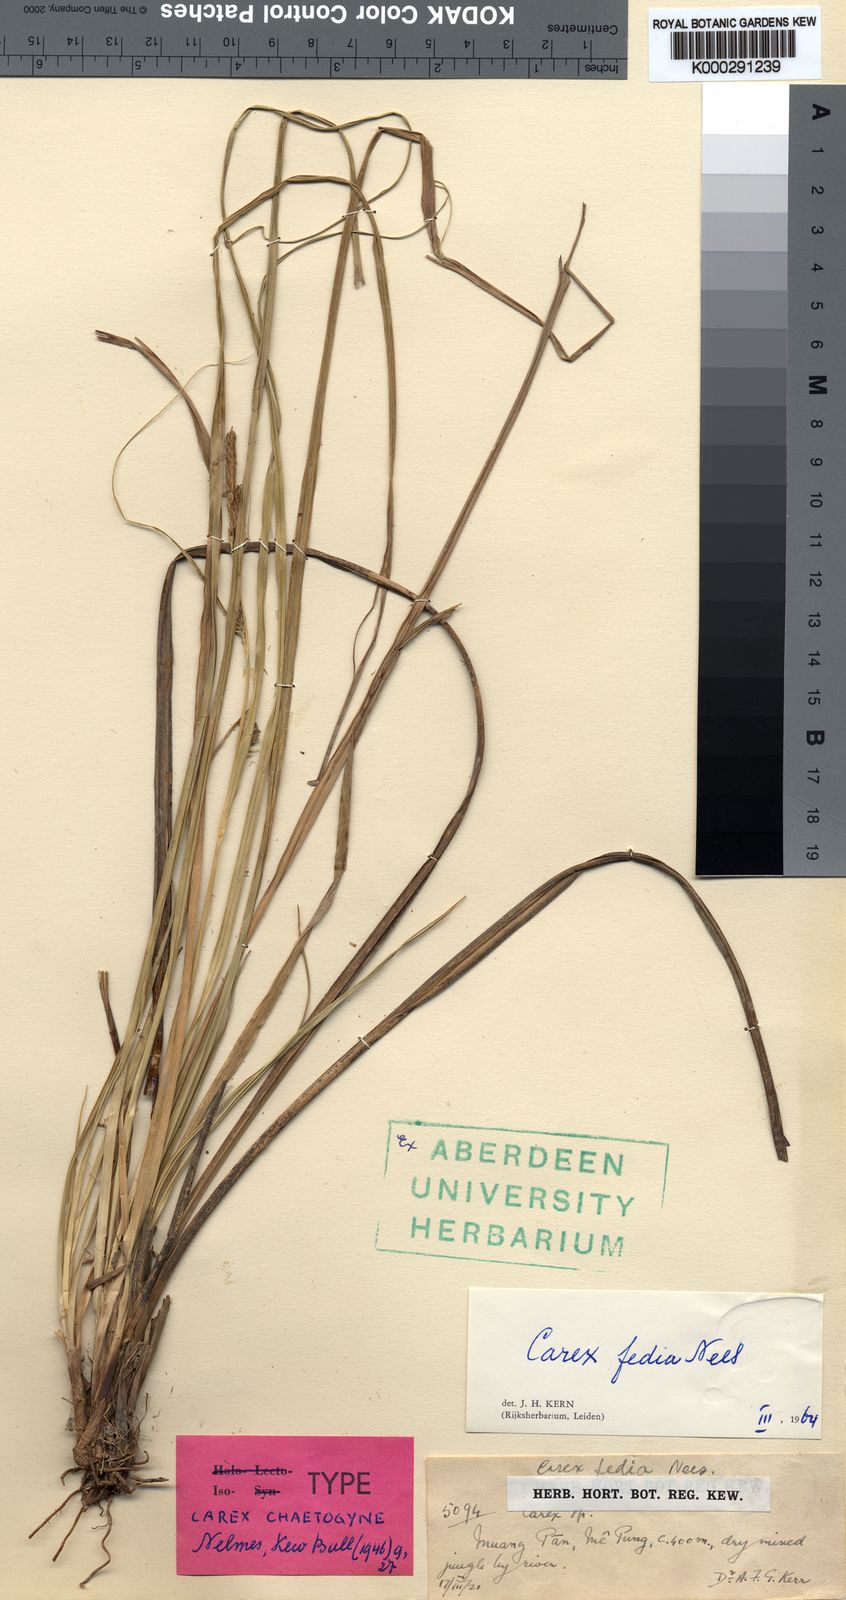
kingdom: Plantae
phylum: Tracheophyta
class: Liliopsida
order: Poales
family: Cyperaceae
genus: Carex
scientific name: Carex fedia
